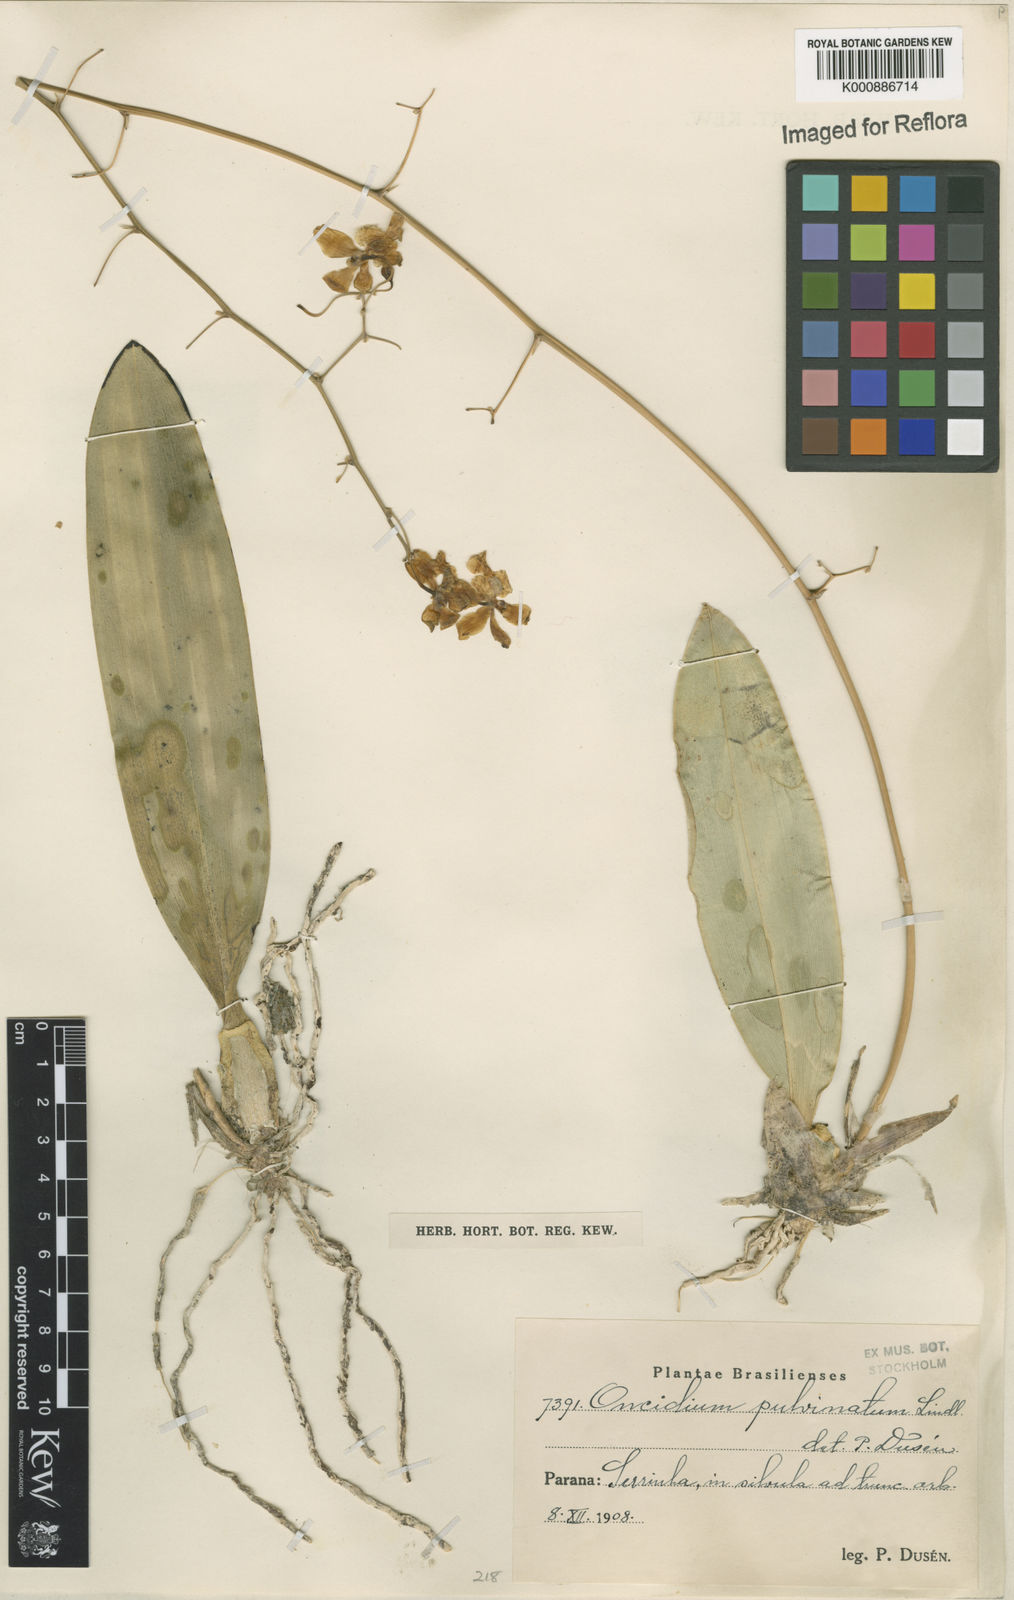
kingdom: Plantae
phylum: Tracheophyta
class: Liliopsida
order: Asparagales
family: Orchidaceae
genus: Grandiphyllum
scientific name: Grandiphyllum divaricatum
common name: Mule-ear orchid
